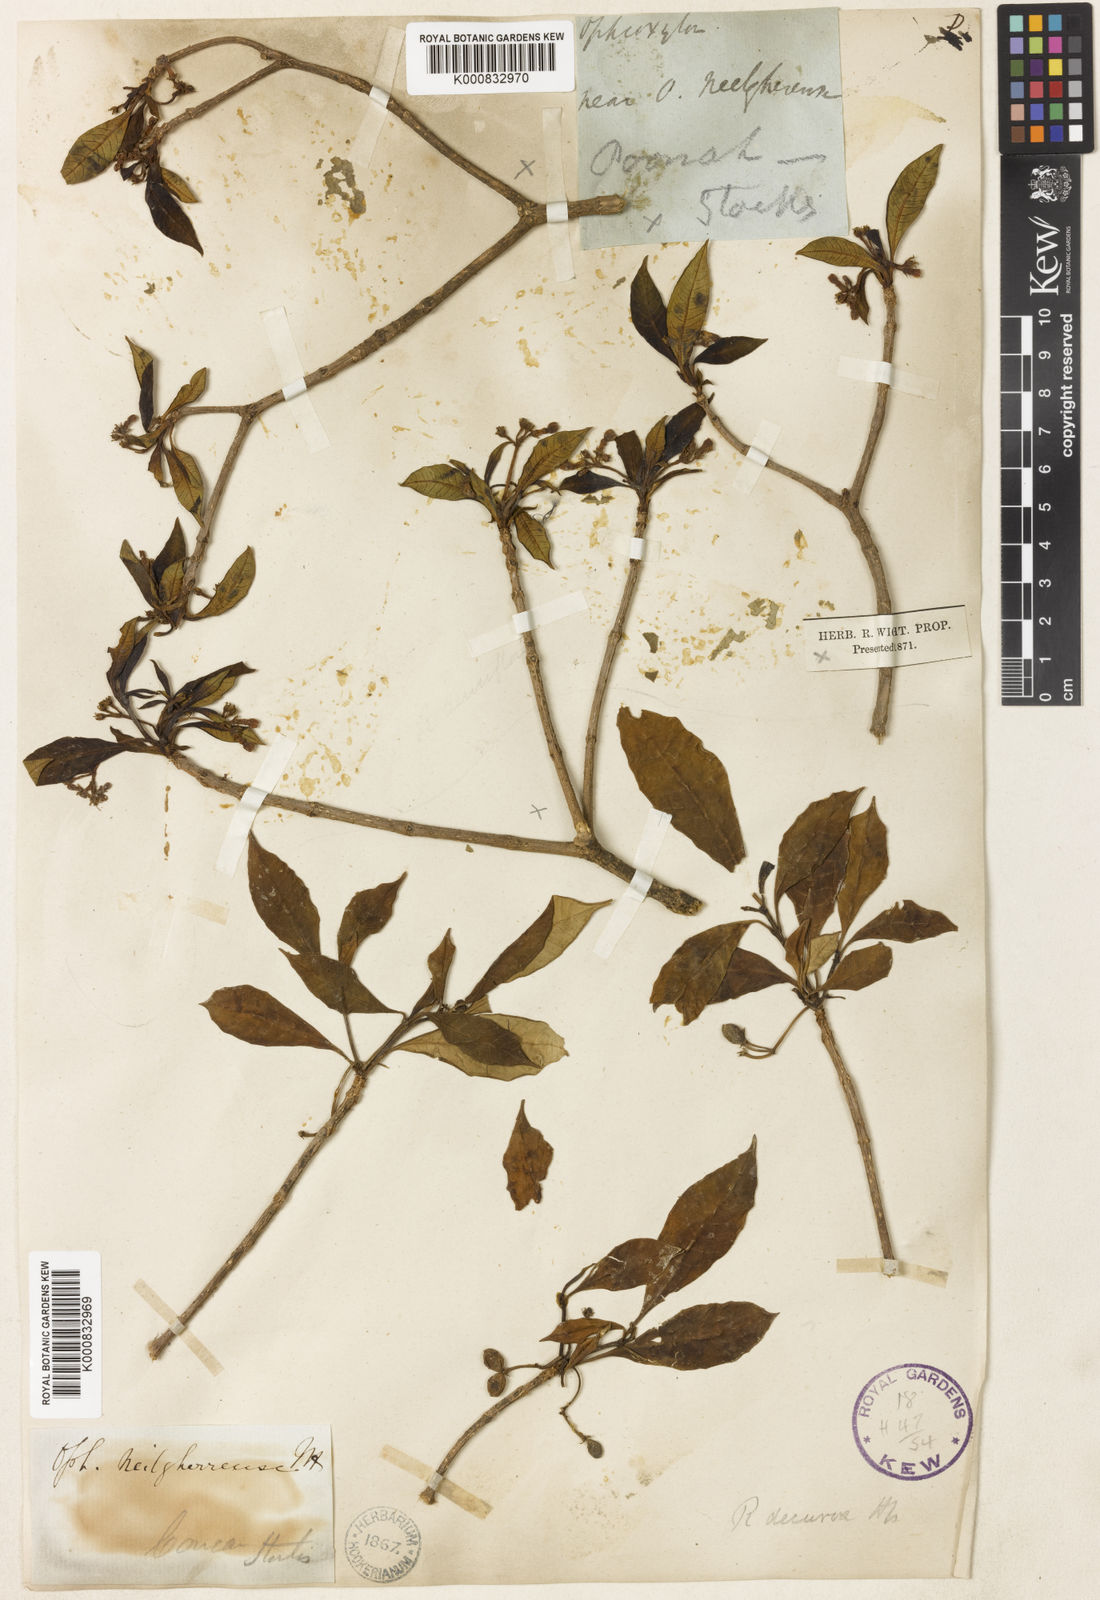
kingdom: Plantae
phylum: Tracheophyta
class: Magnoliopsida
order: Gentianales
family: Apocynaceae
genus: Rauvolfia
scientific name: Rauvolfia verticillata
